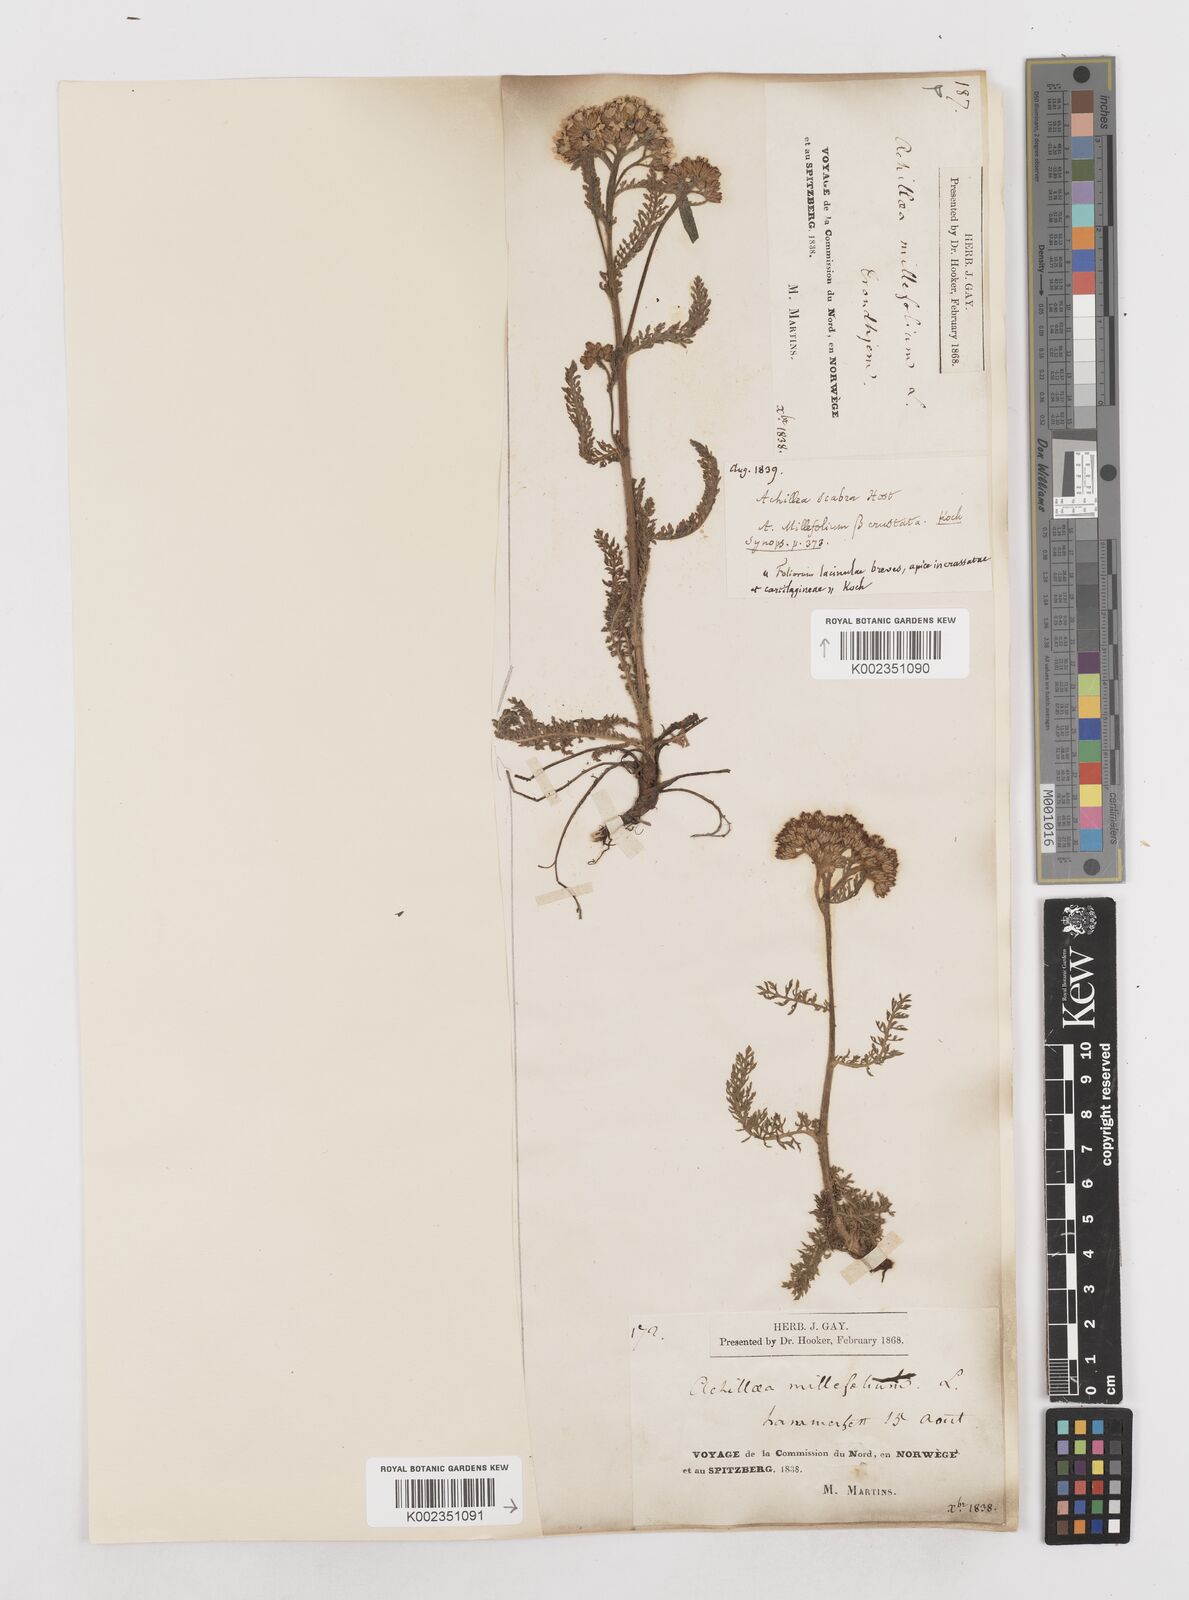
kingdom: Plantae
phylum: Tracheophyta
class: Magnoliopsida
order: Asterales
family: Asteraceae
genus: Achillea
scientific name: Achillea millefolium
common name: Yarrow
